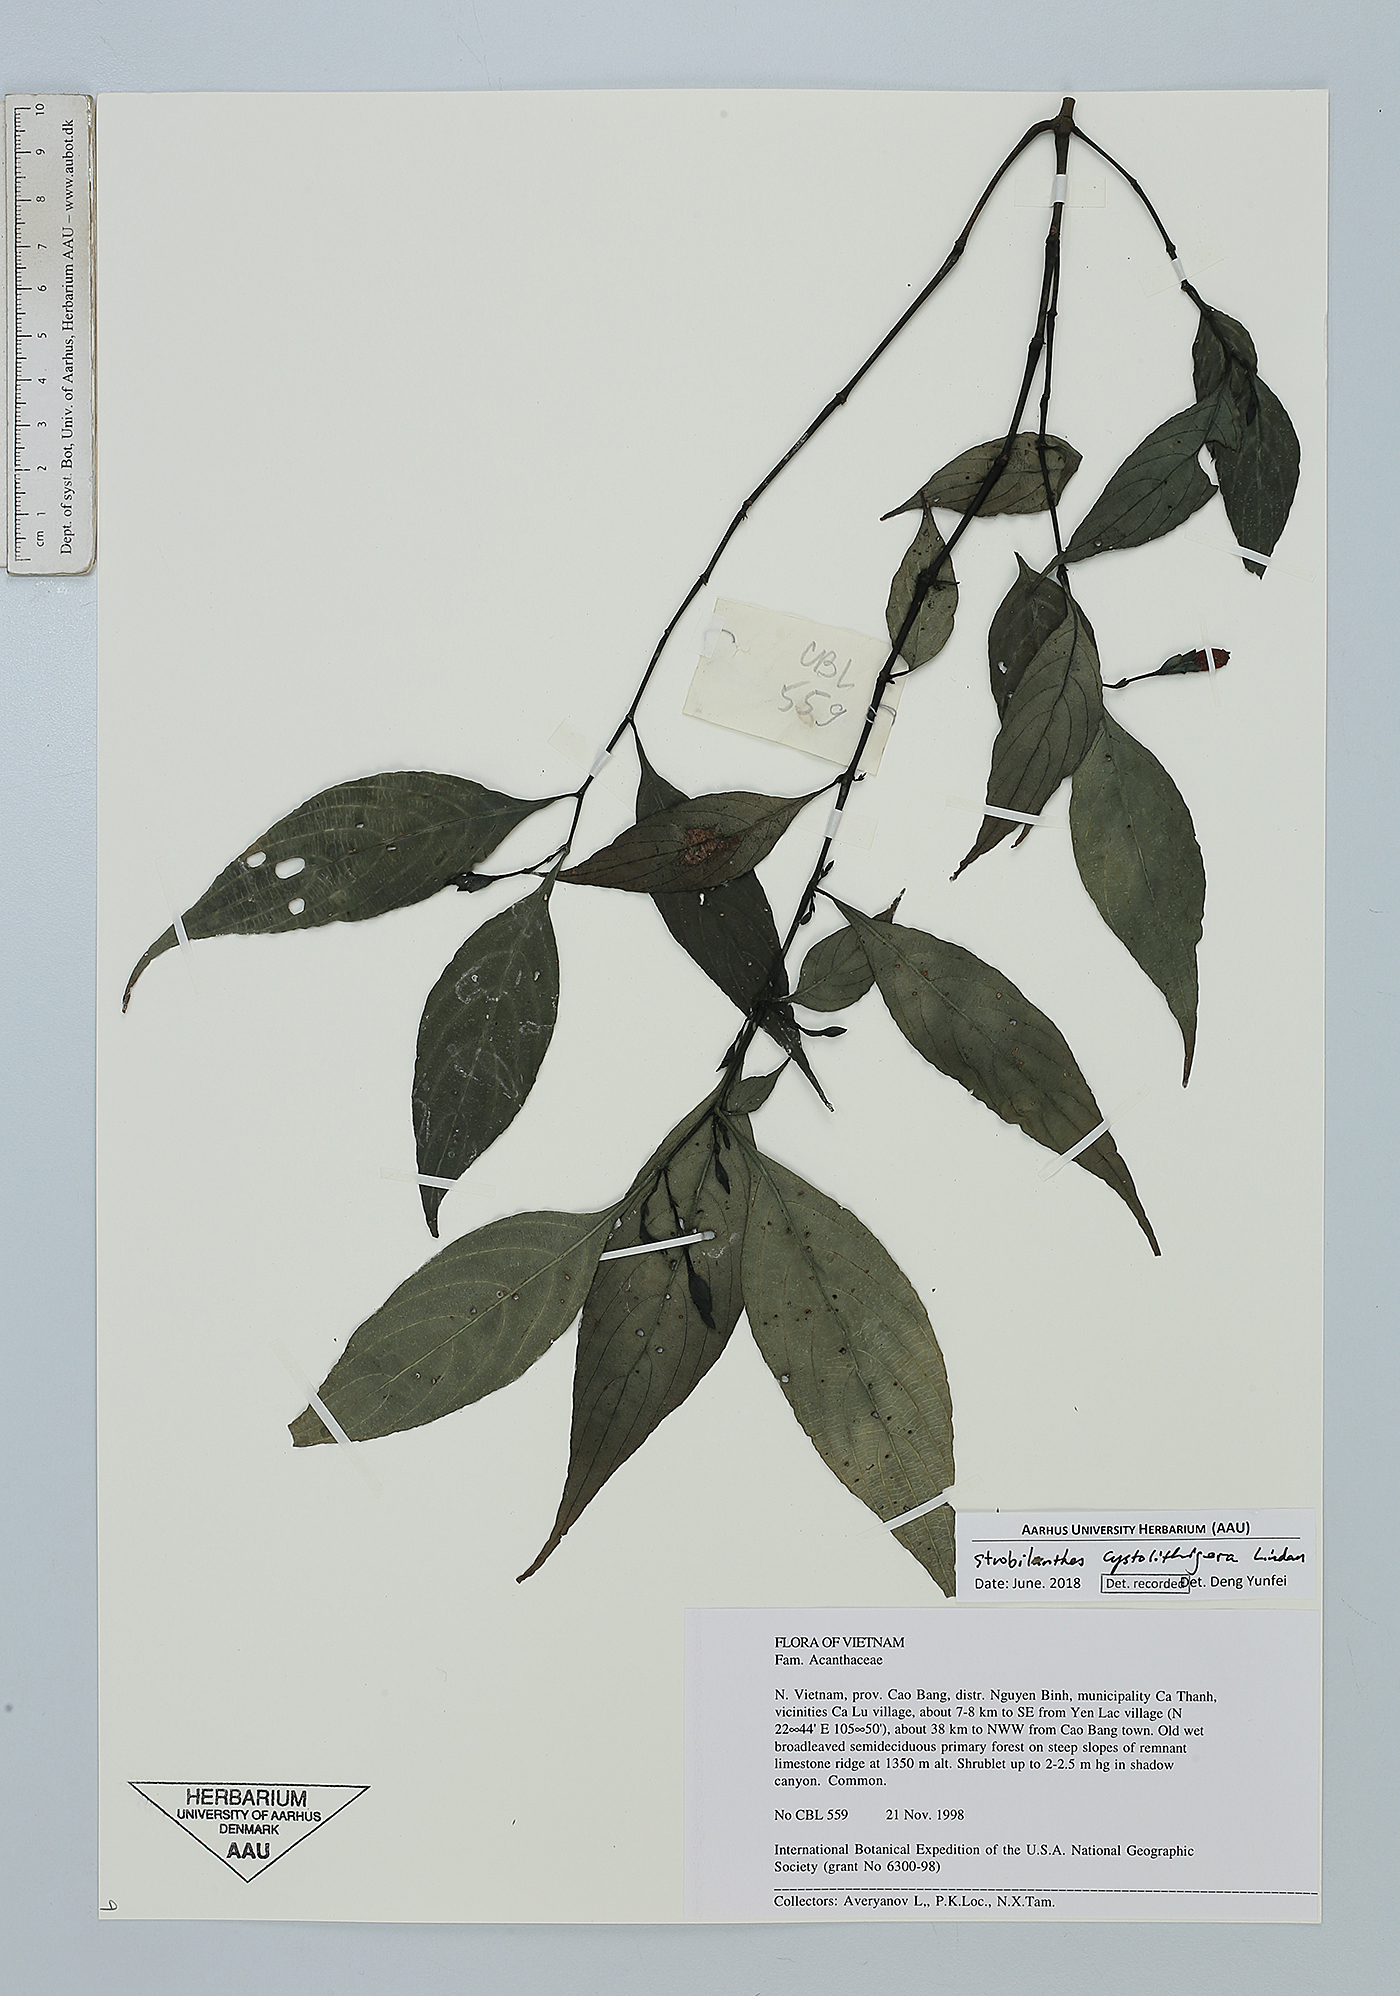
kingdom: Plantae
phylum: Tracheophyta
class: Magnoliopsida
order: Lamiales
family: Acanthaceae
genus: Strobilanthes
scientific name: Strobilanthes cystolithigera
